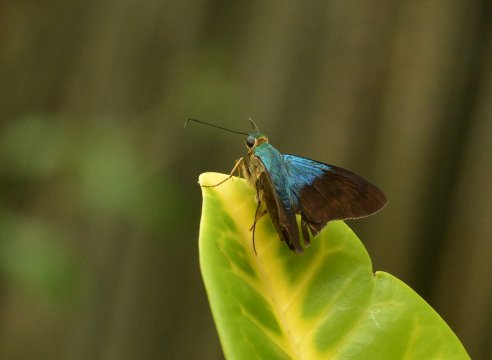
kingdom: Animalia
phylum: Arthropoda
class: Insecta
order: Lepidoptera
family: Hesperiidae
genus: Astraptes
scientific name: Astraptes alector
